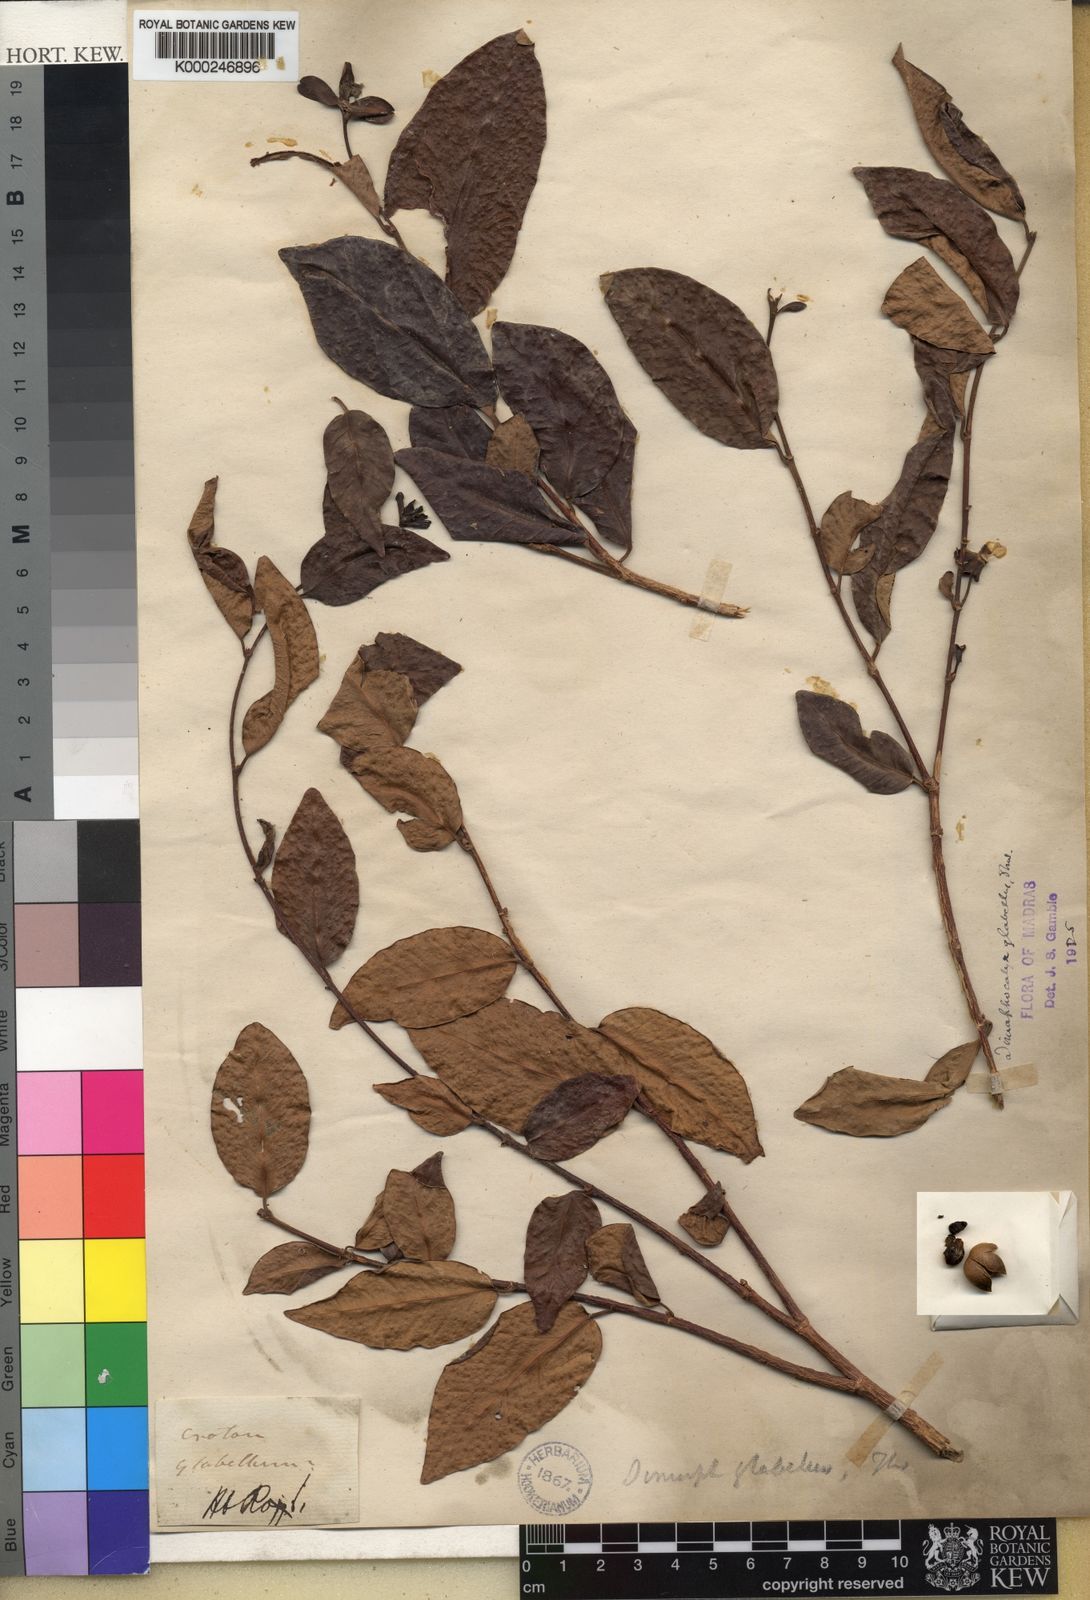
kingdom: Plantae
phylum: Tracheophyta
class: Magnoliopsida
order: Malpighiales
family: Euphorbiaceae
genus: Tritaxis
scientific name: Tritaxis glabella
